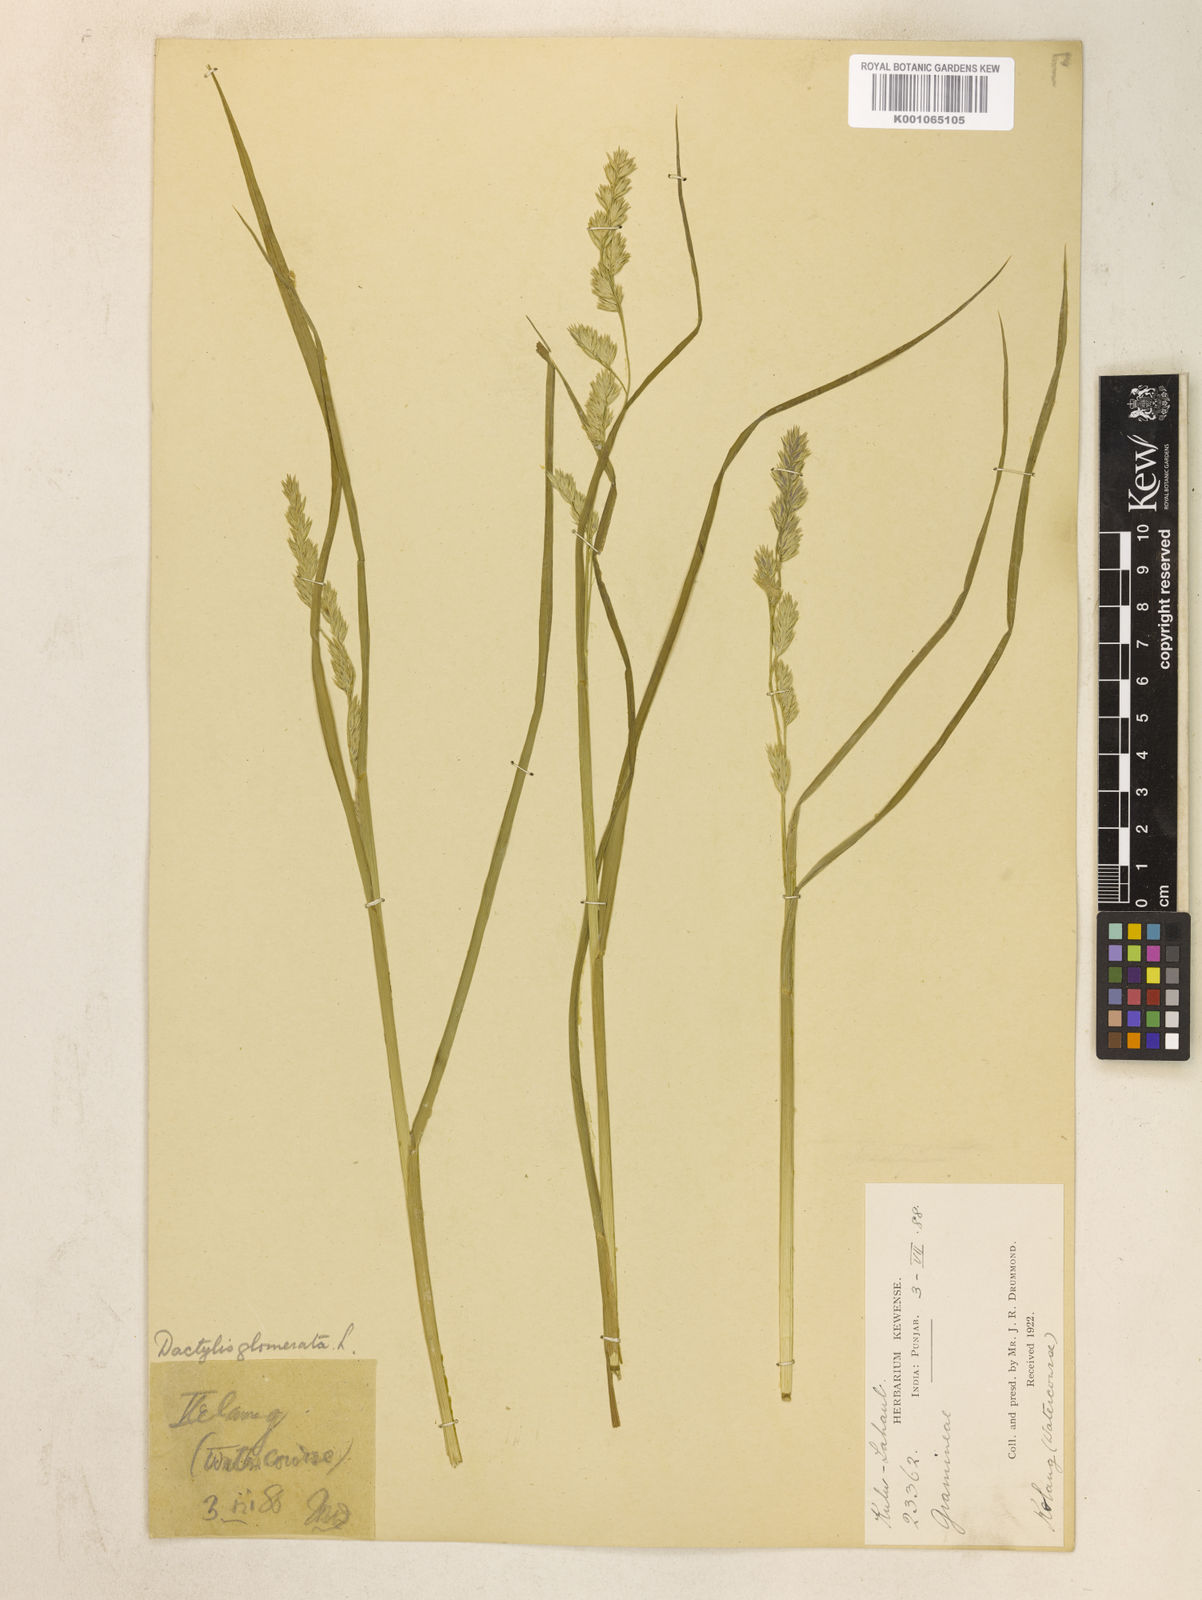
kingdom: Plantae
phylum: Tracheophyta
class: Liliopsida
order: Poales
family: Poaceae
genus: Dactylis
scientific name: Dactylis glomerata
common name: Orchardgrass
